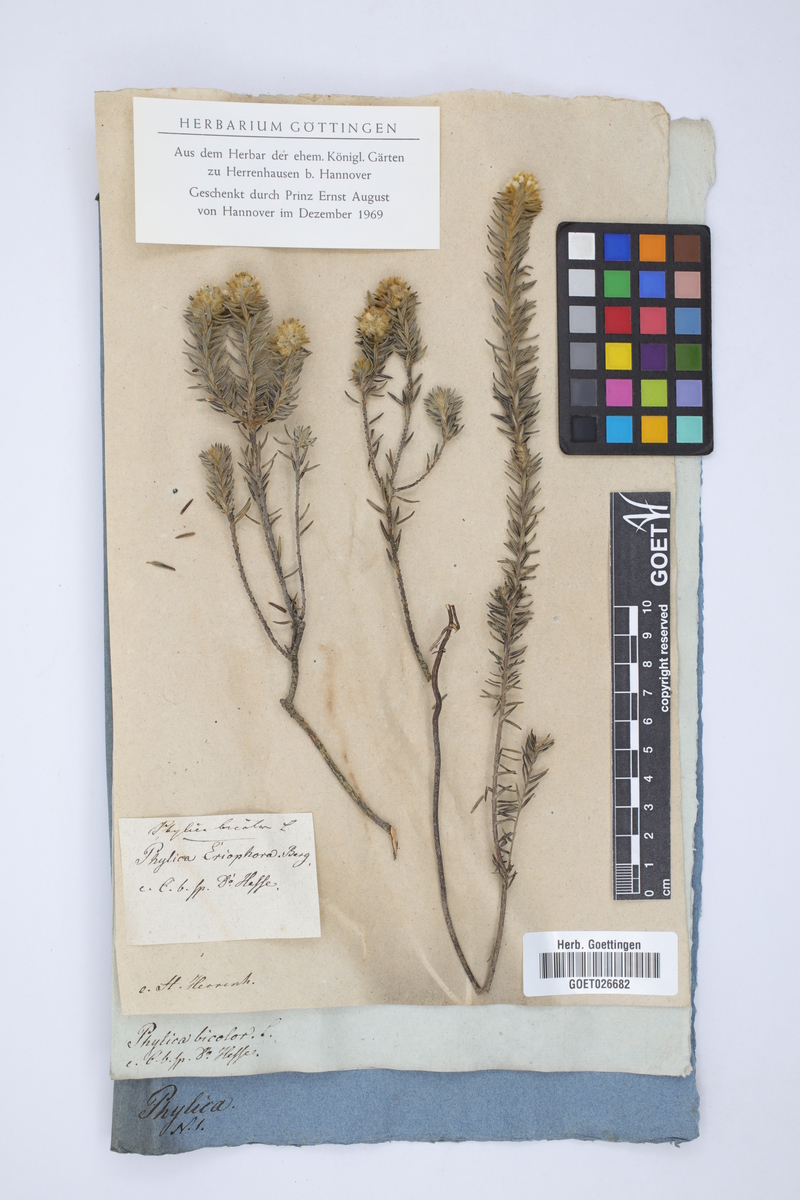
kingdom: Plantae
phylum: Tracheophyta
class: Magnoliopsida
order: Rosales
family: Rhamnaceae
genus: Phylica
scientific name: Phylica strigosa
